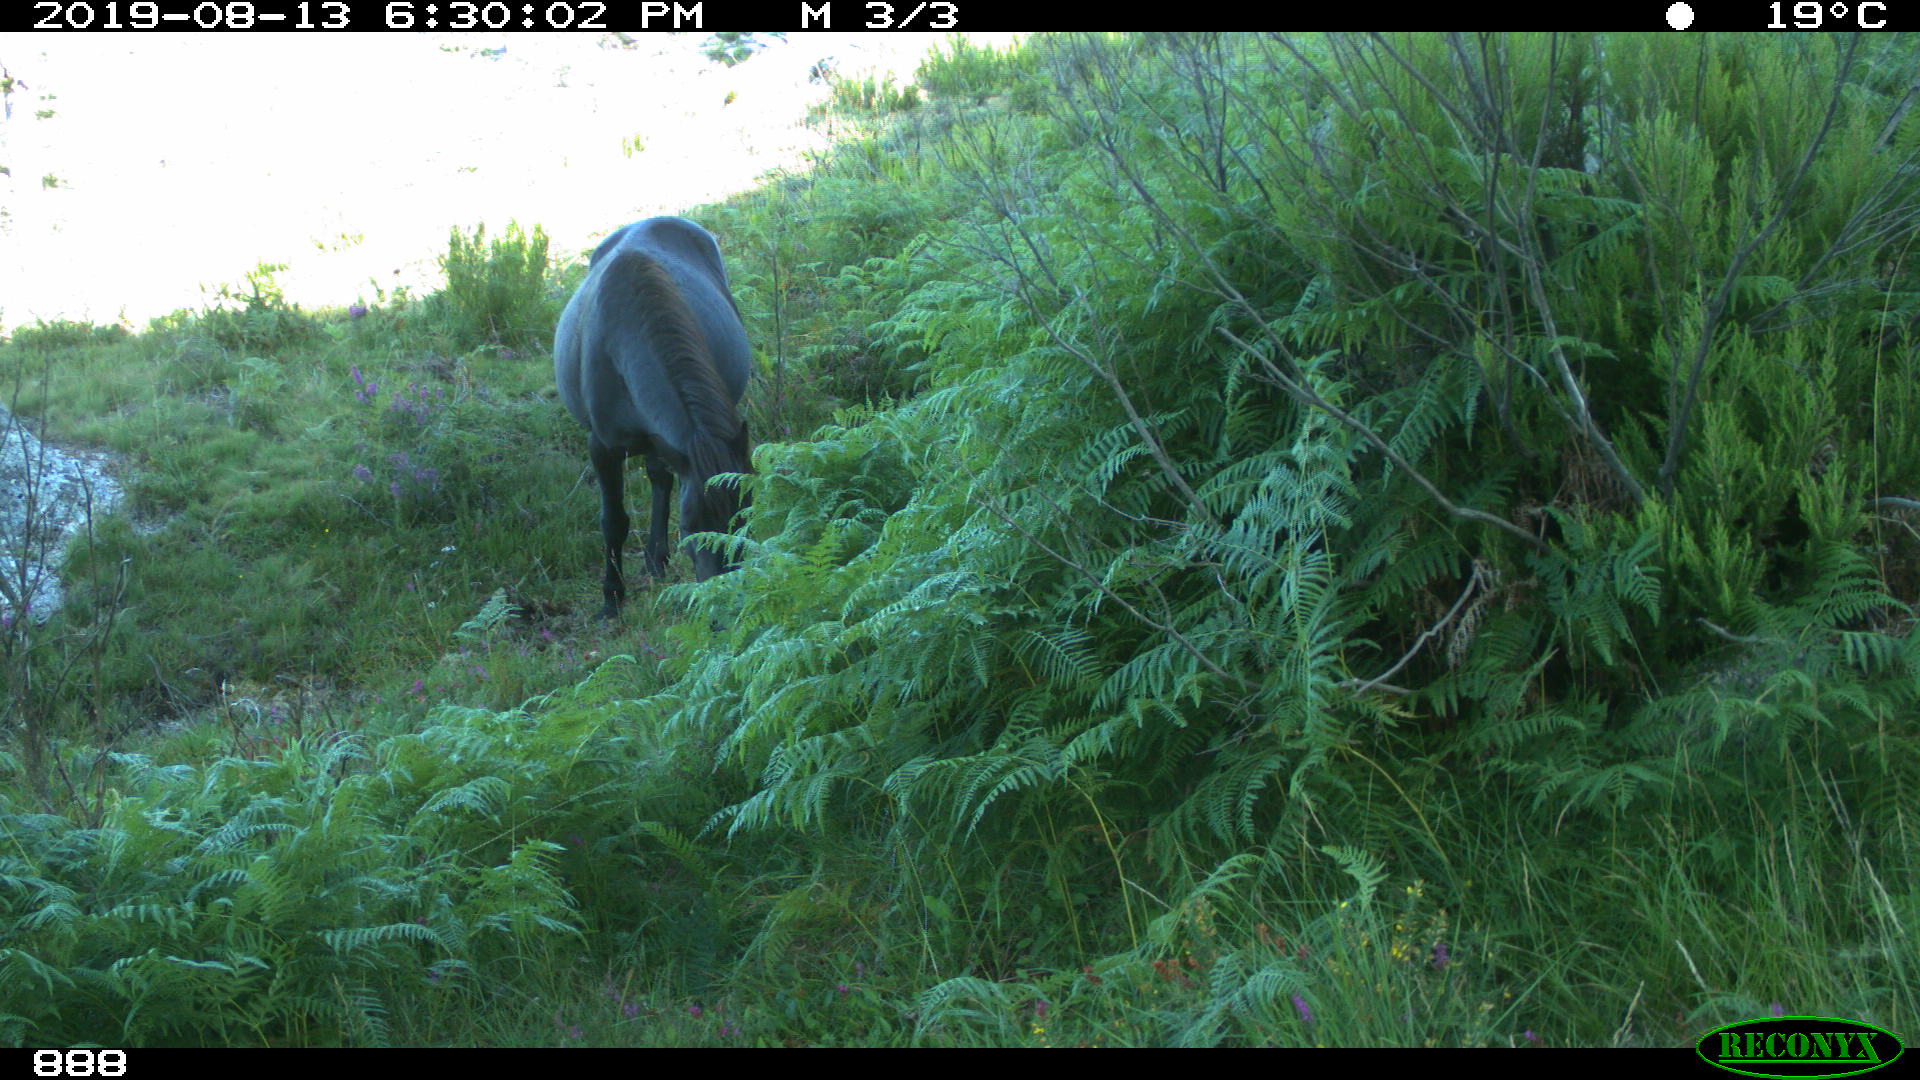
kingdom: Animalia
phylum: Chordata
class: Mammalia
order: Perissodactyla
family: Equidae
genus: Equus
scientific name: Equus caballus
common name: Horse
